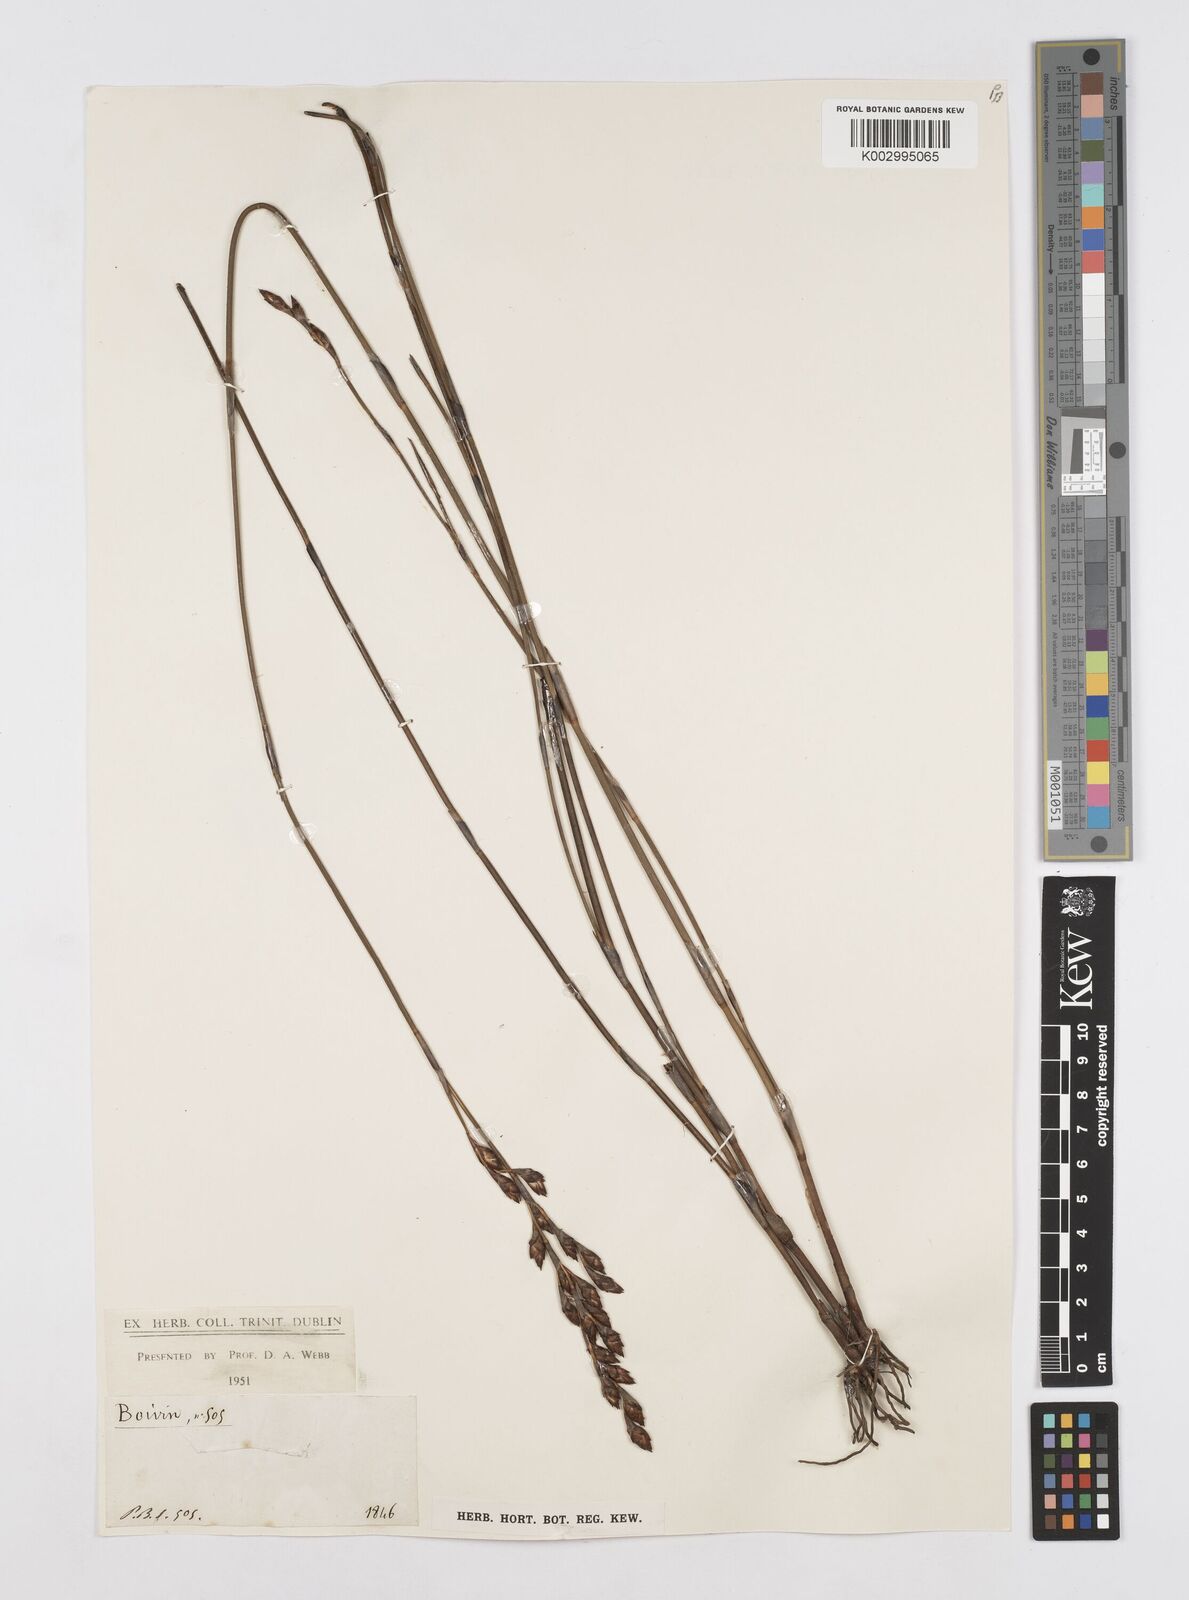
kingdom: Plantae
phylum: Tracheophyta
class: Liliopsida
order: Poales
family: Restionaceae
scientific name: Restionaceae
